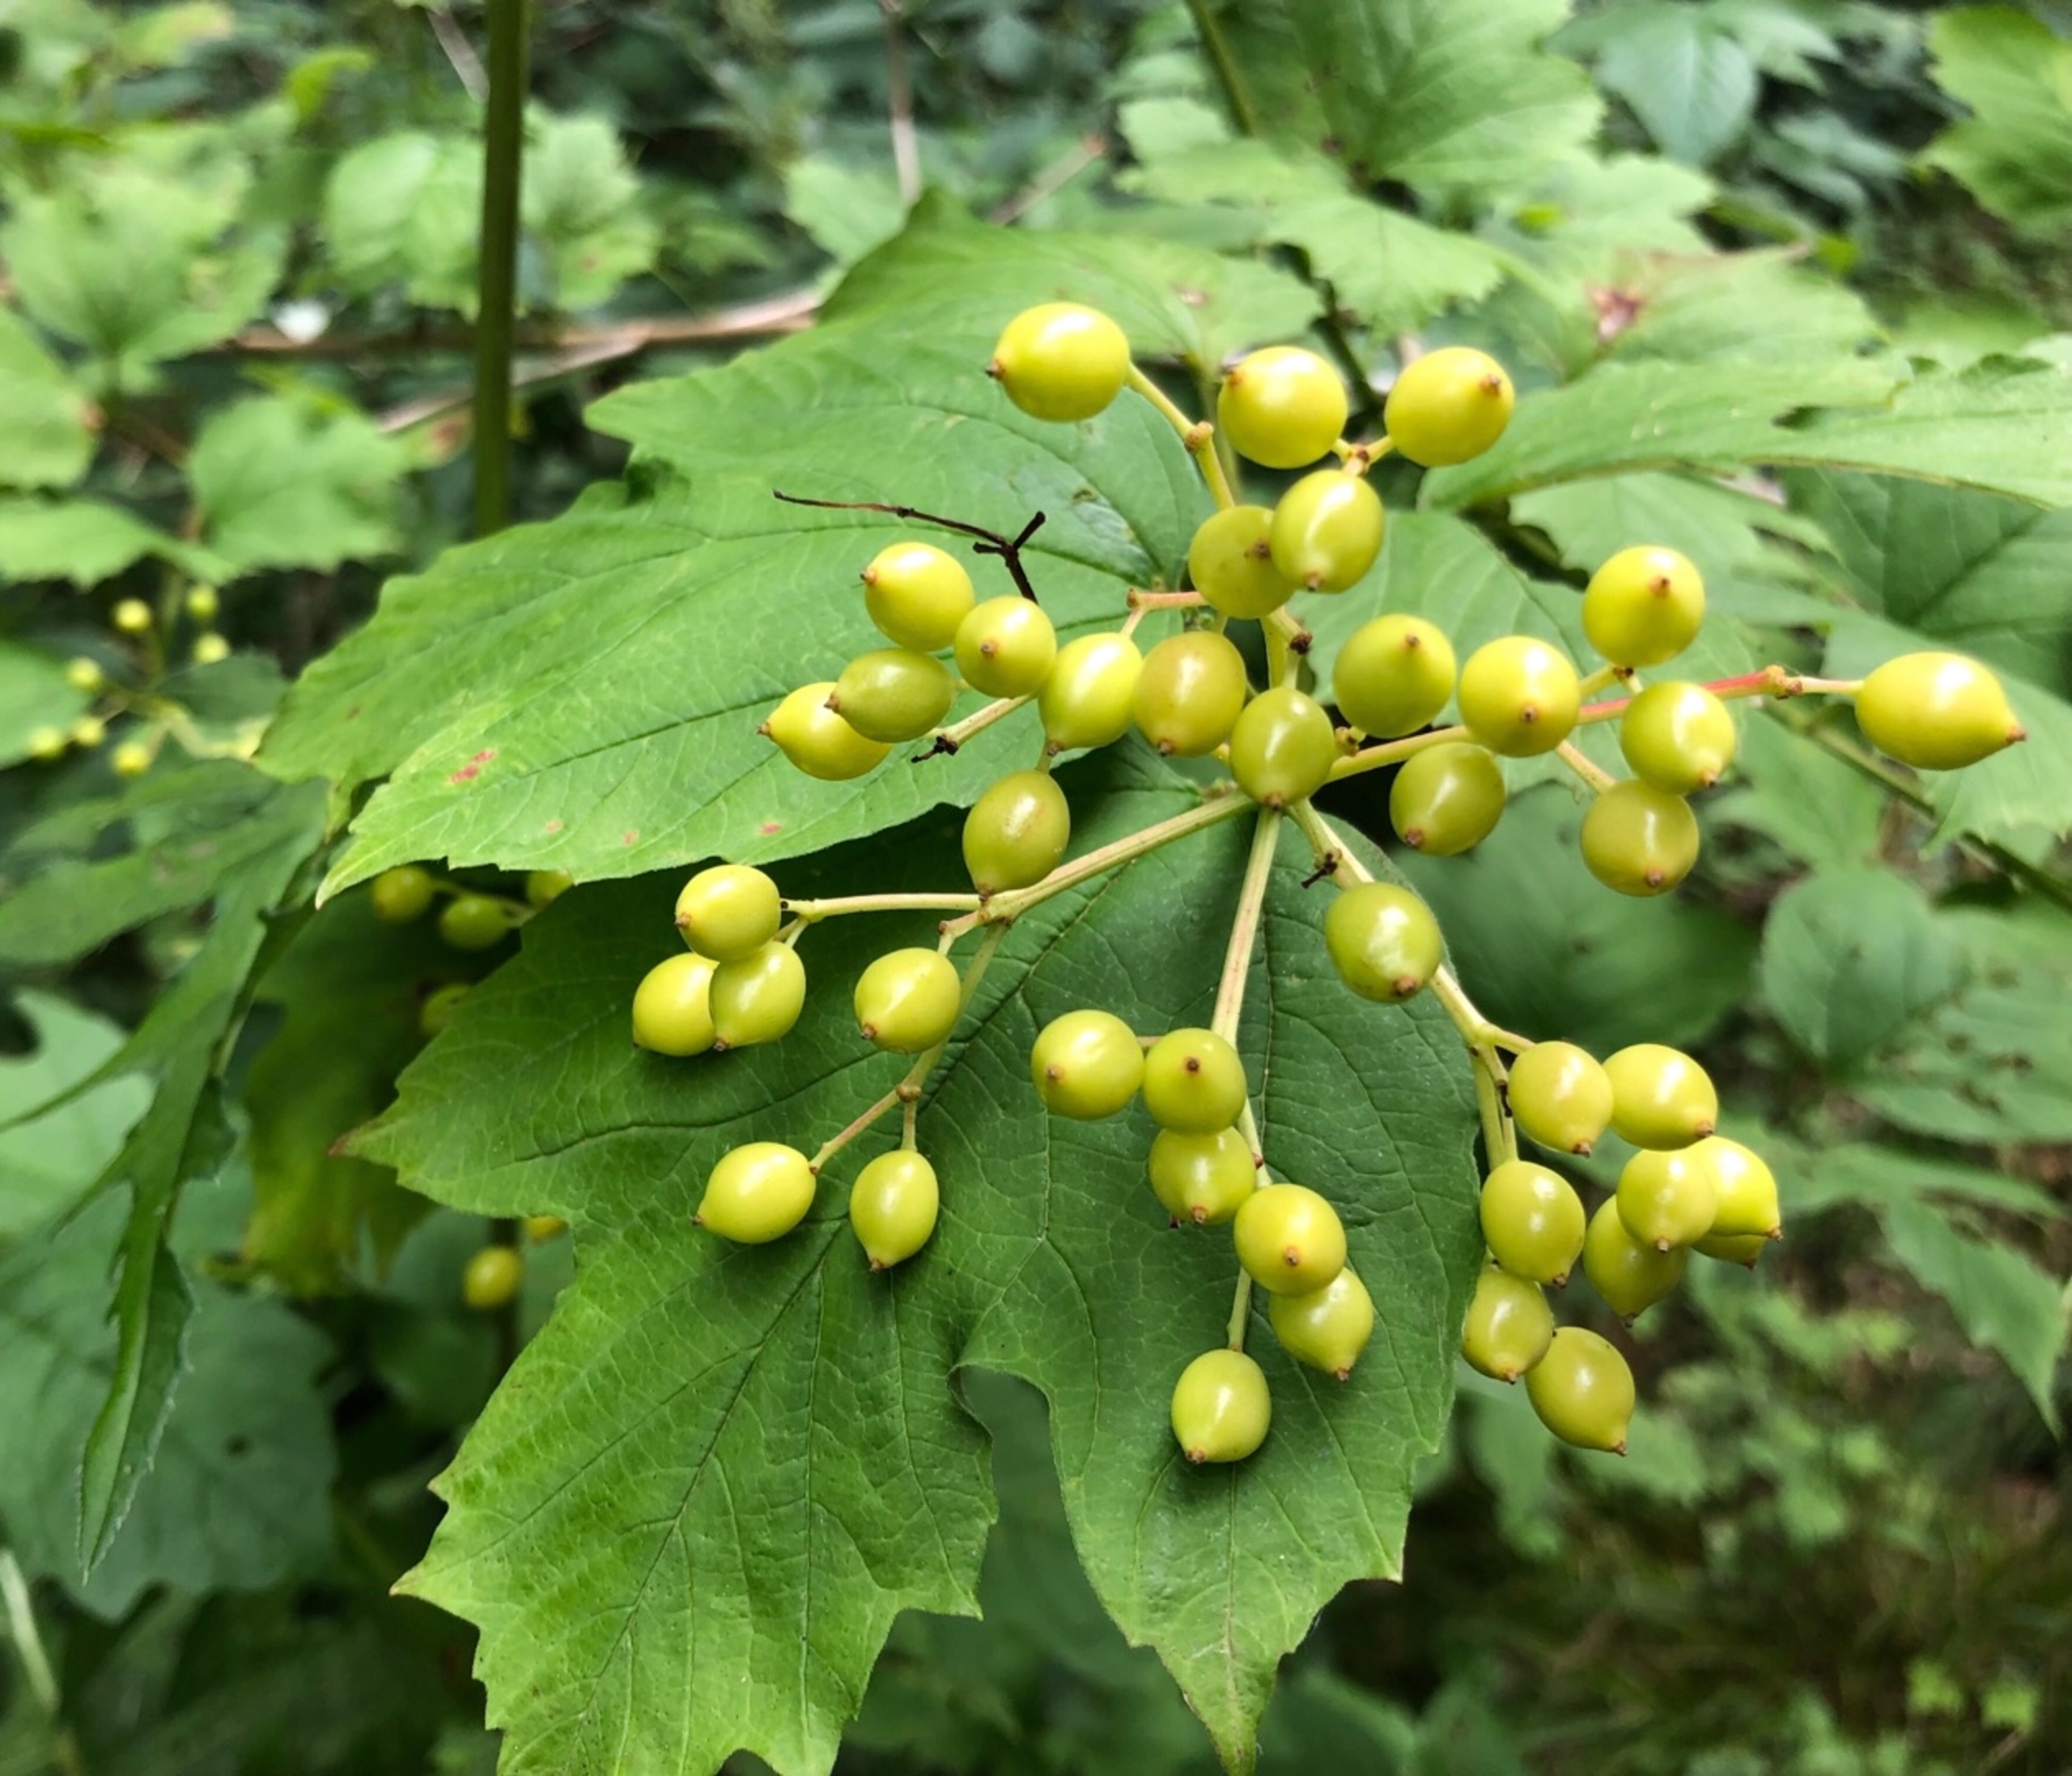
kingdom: Plantae
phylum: Tracheophyta
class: Magnoliopsida
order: Dipsacales
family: Viburnaceae
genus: Viburnum
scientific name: Viburnum
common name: Kvalkvedslægten
